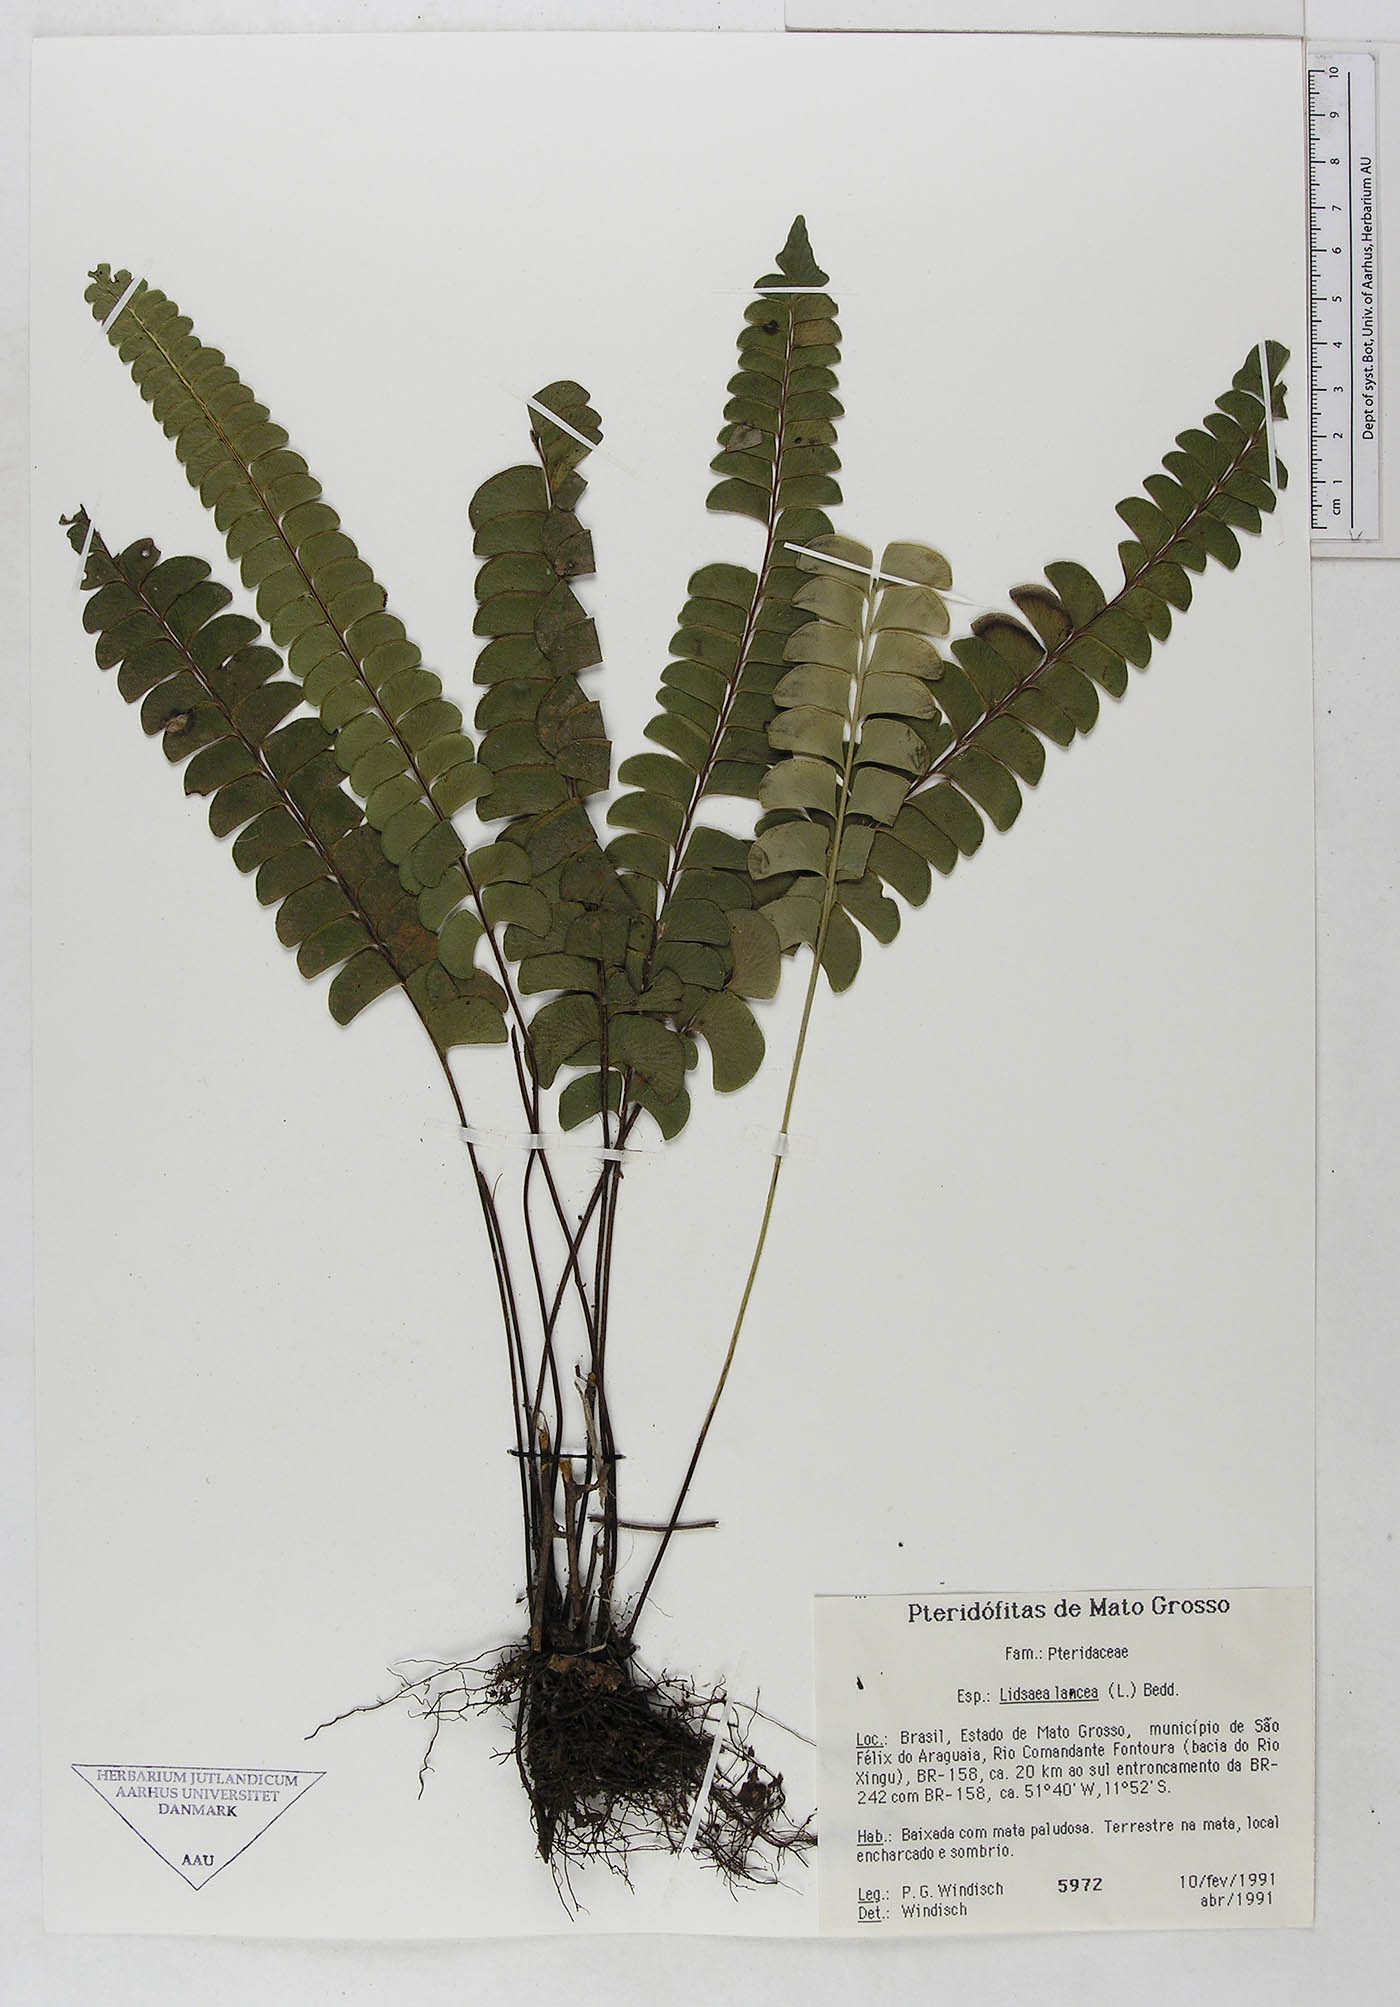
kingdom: Plantae
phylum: Tracheophyta
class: Polypodiopsida
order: Polypodiales
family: Dennstaedtiaceae
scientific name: Dennstaedtiaceae
